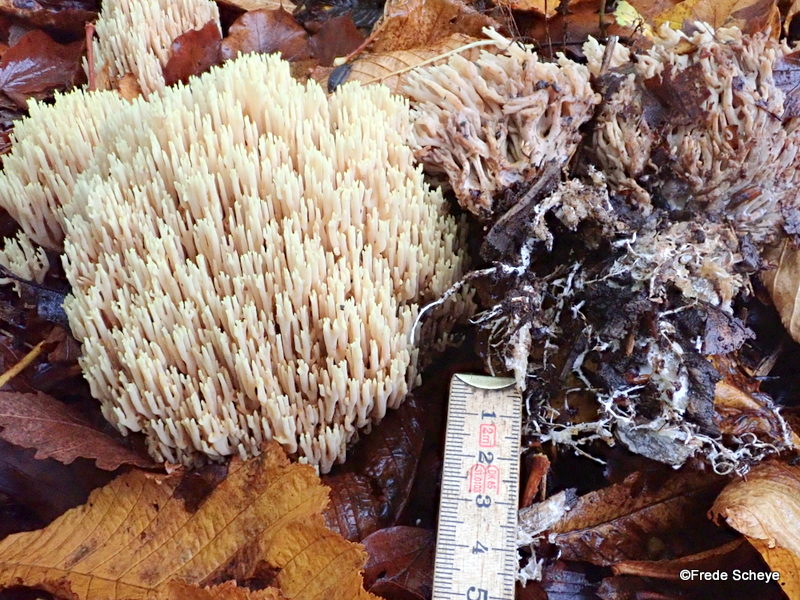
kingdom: Fungi
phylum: Basidiomycota
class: Agaricomycetes
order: Gomphales
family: Gomphaceae
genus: Ramaria
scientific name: Ramaria stricta
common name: rank koralsvamp
